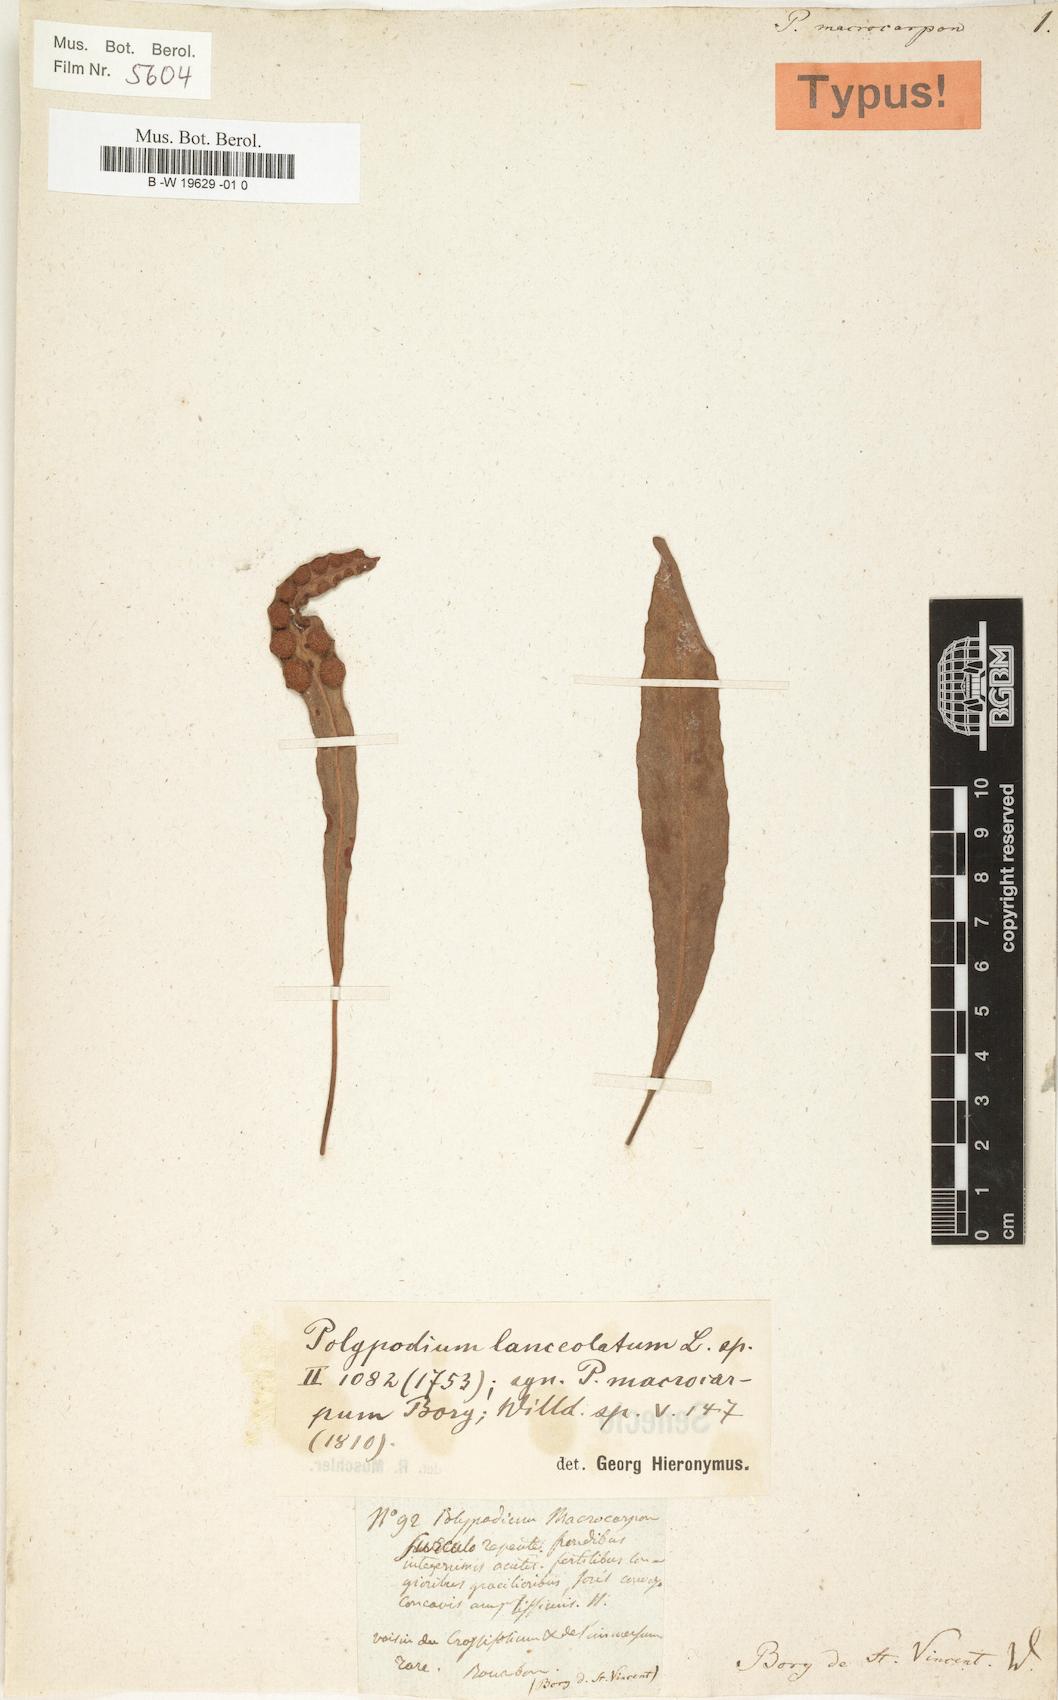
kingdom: Plantae
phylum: Tracheophyta
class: Polypodiopsida
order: Polypodiales
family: Polypodiaceae
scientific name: Polypodiaceae
